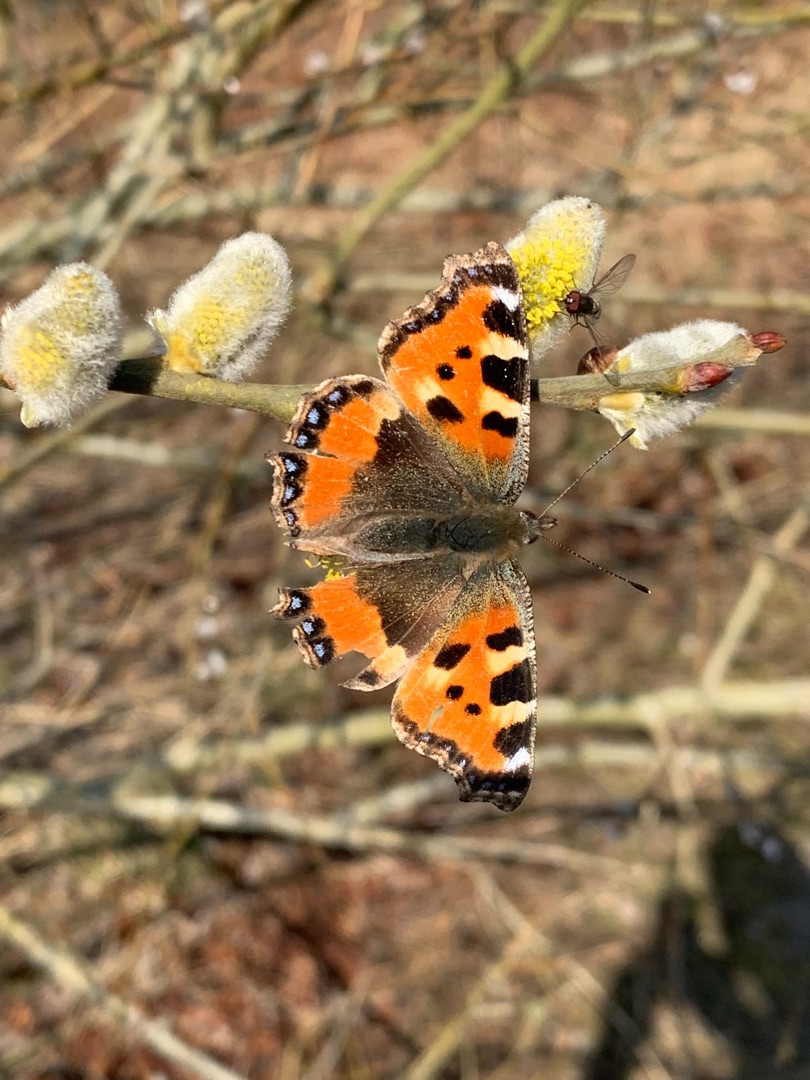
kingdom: Animalia
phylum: Arthropoda
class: Insecta
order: Lepidoptera
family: Nymphalidae
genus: Aglais
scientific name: Aglais urticae
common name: Nældens takvinge
